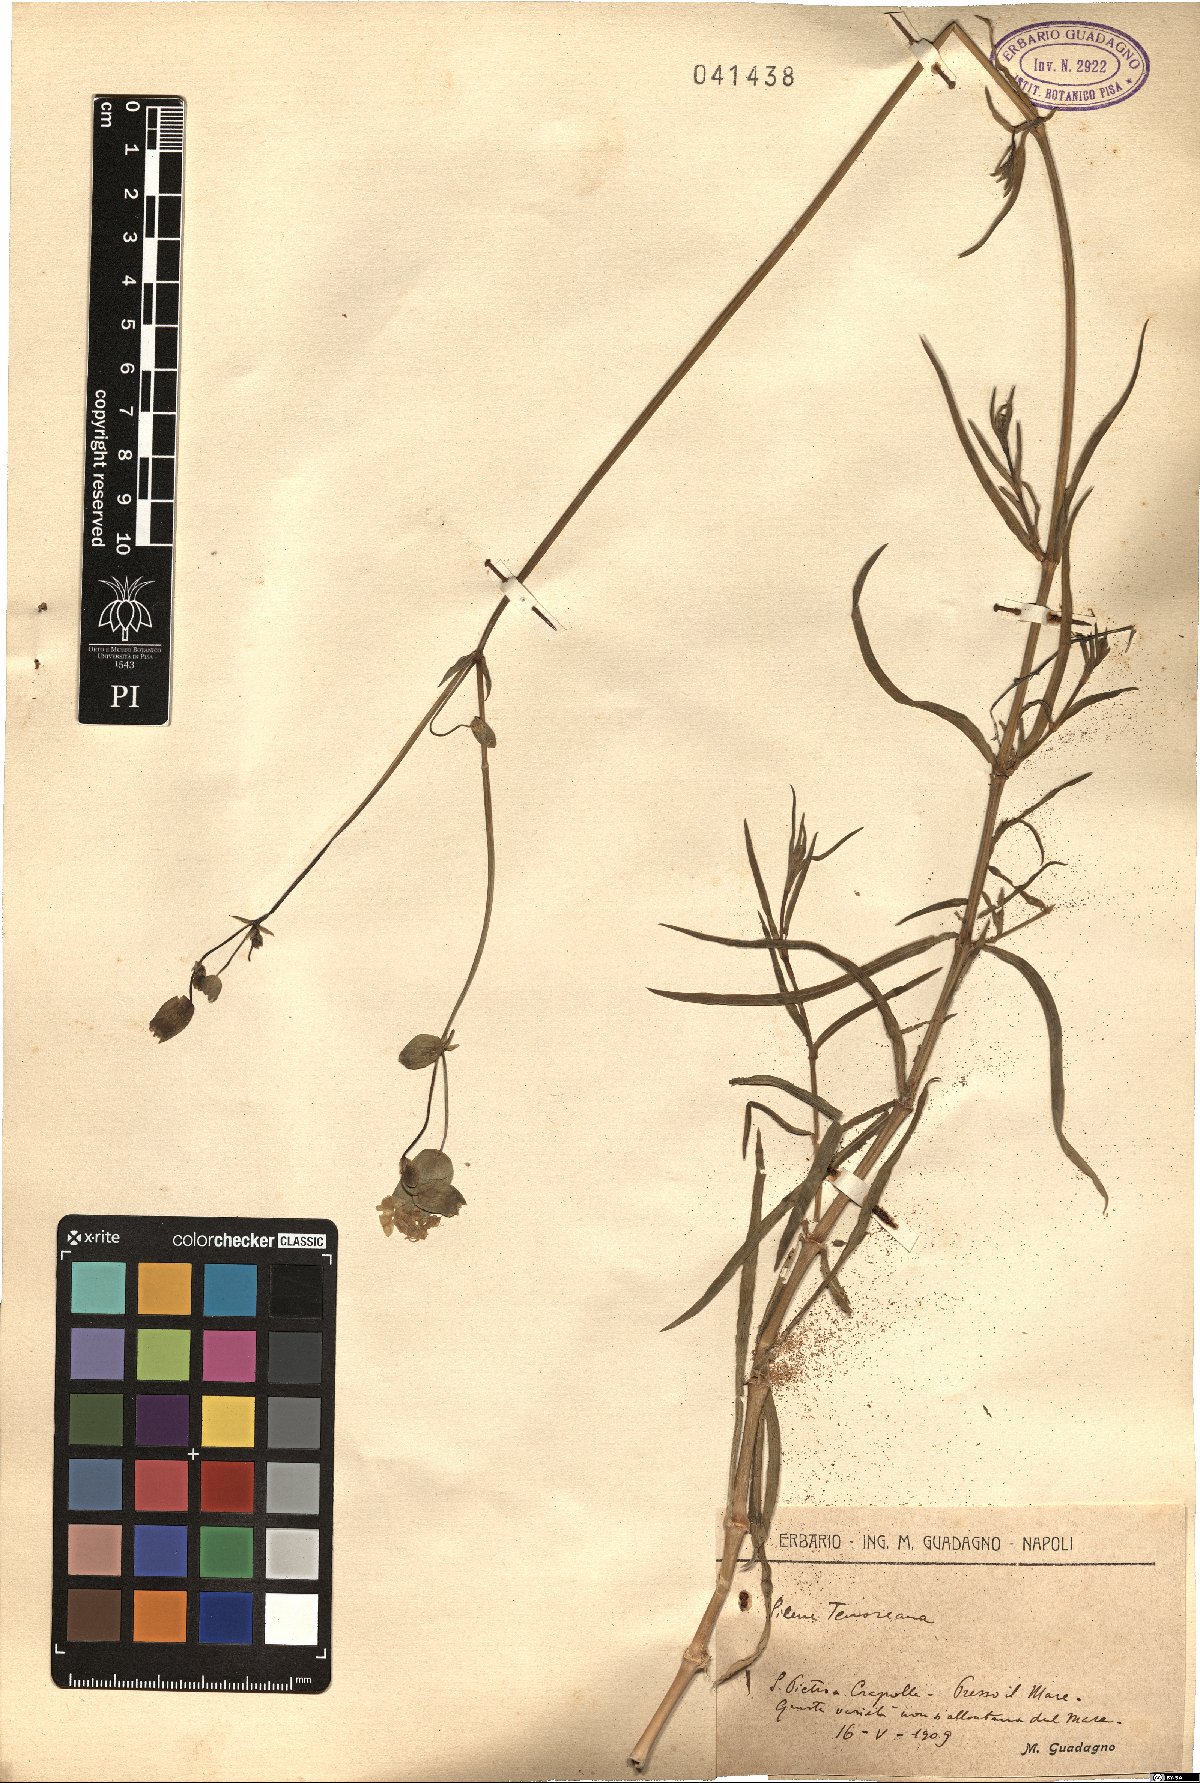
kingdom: Plantae
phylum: Tracheophyta
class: Magnoliopsida
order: Caryophyllales
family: Caryophyllaceae
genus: Silene
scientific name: Silene vulgaris
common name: Bladder campion
